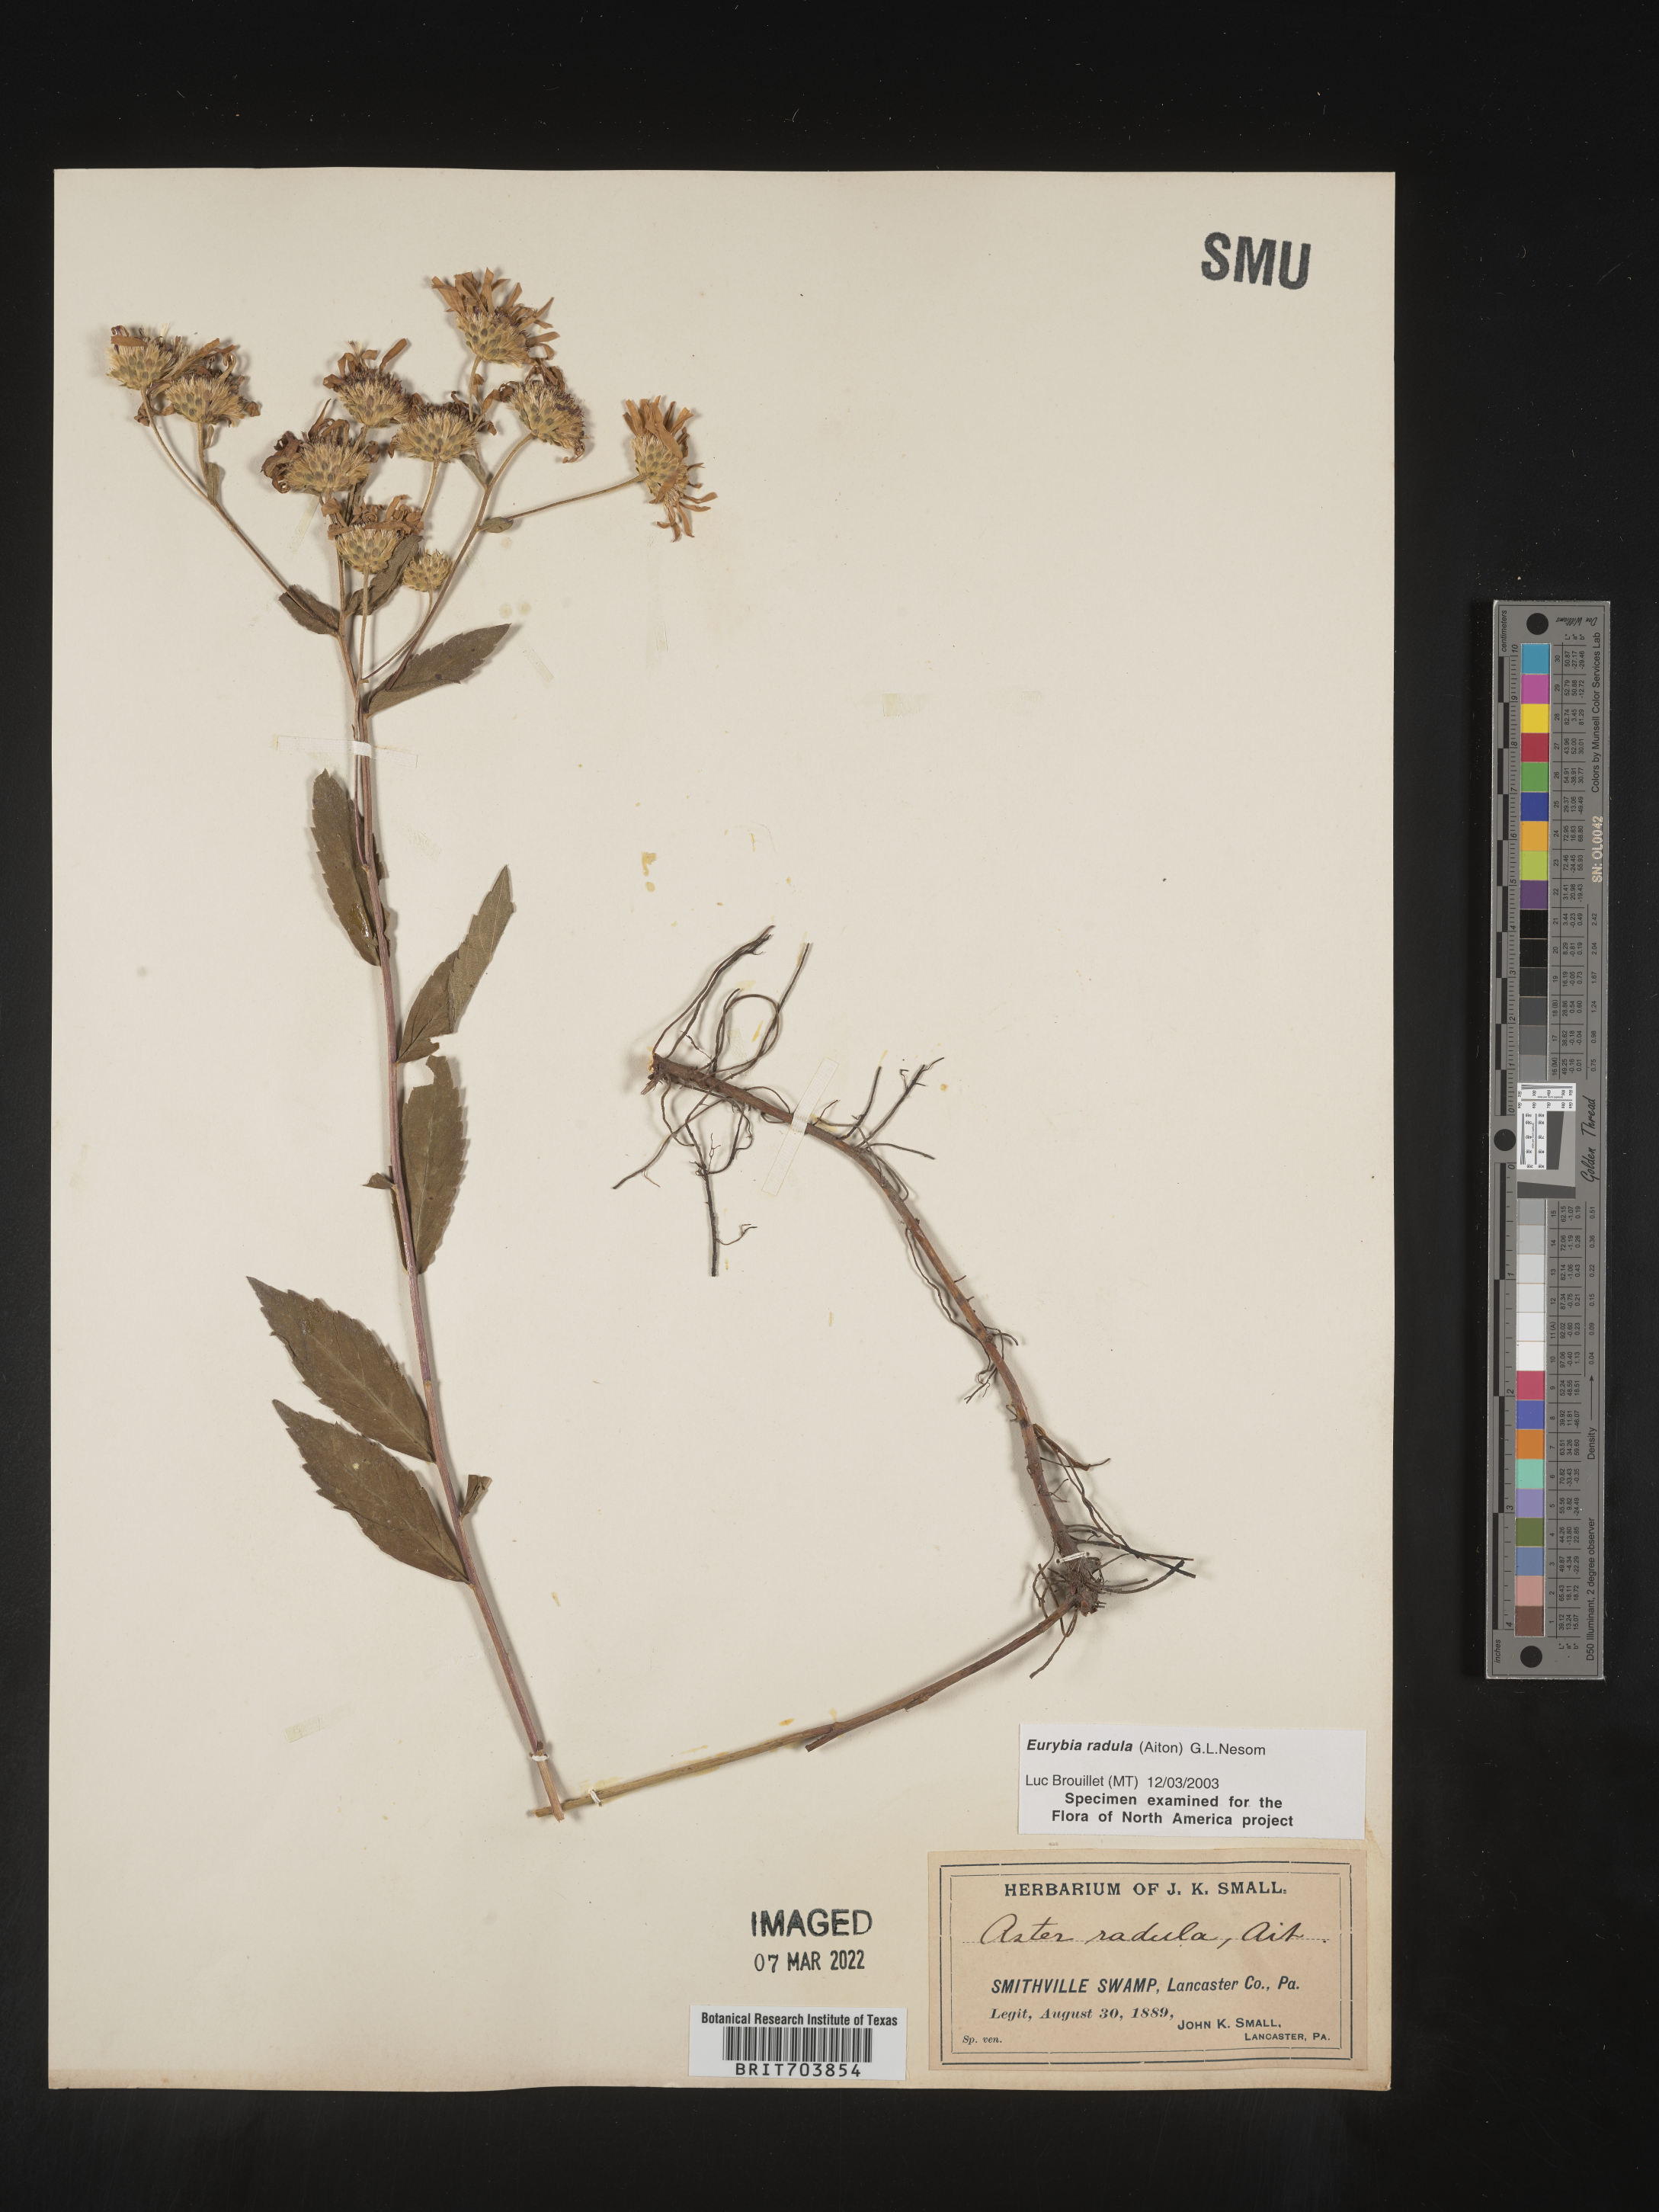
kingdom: Plantae
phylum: Tracheophyta
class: Magnoliopsida
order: Asterales
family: Asteraceae
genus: Eurybia
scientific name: Eurybia radula
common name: Low rough aster
